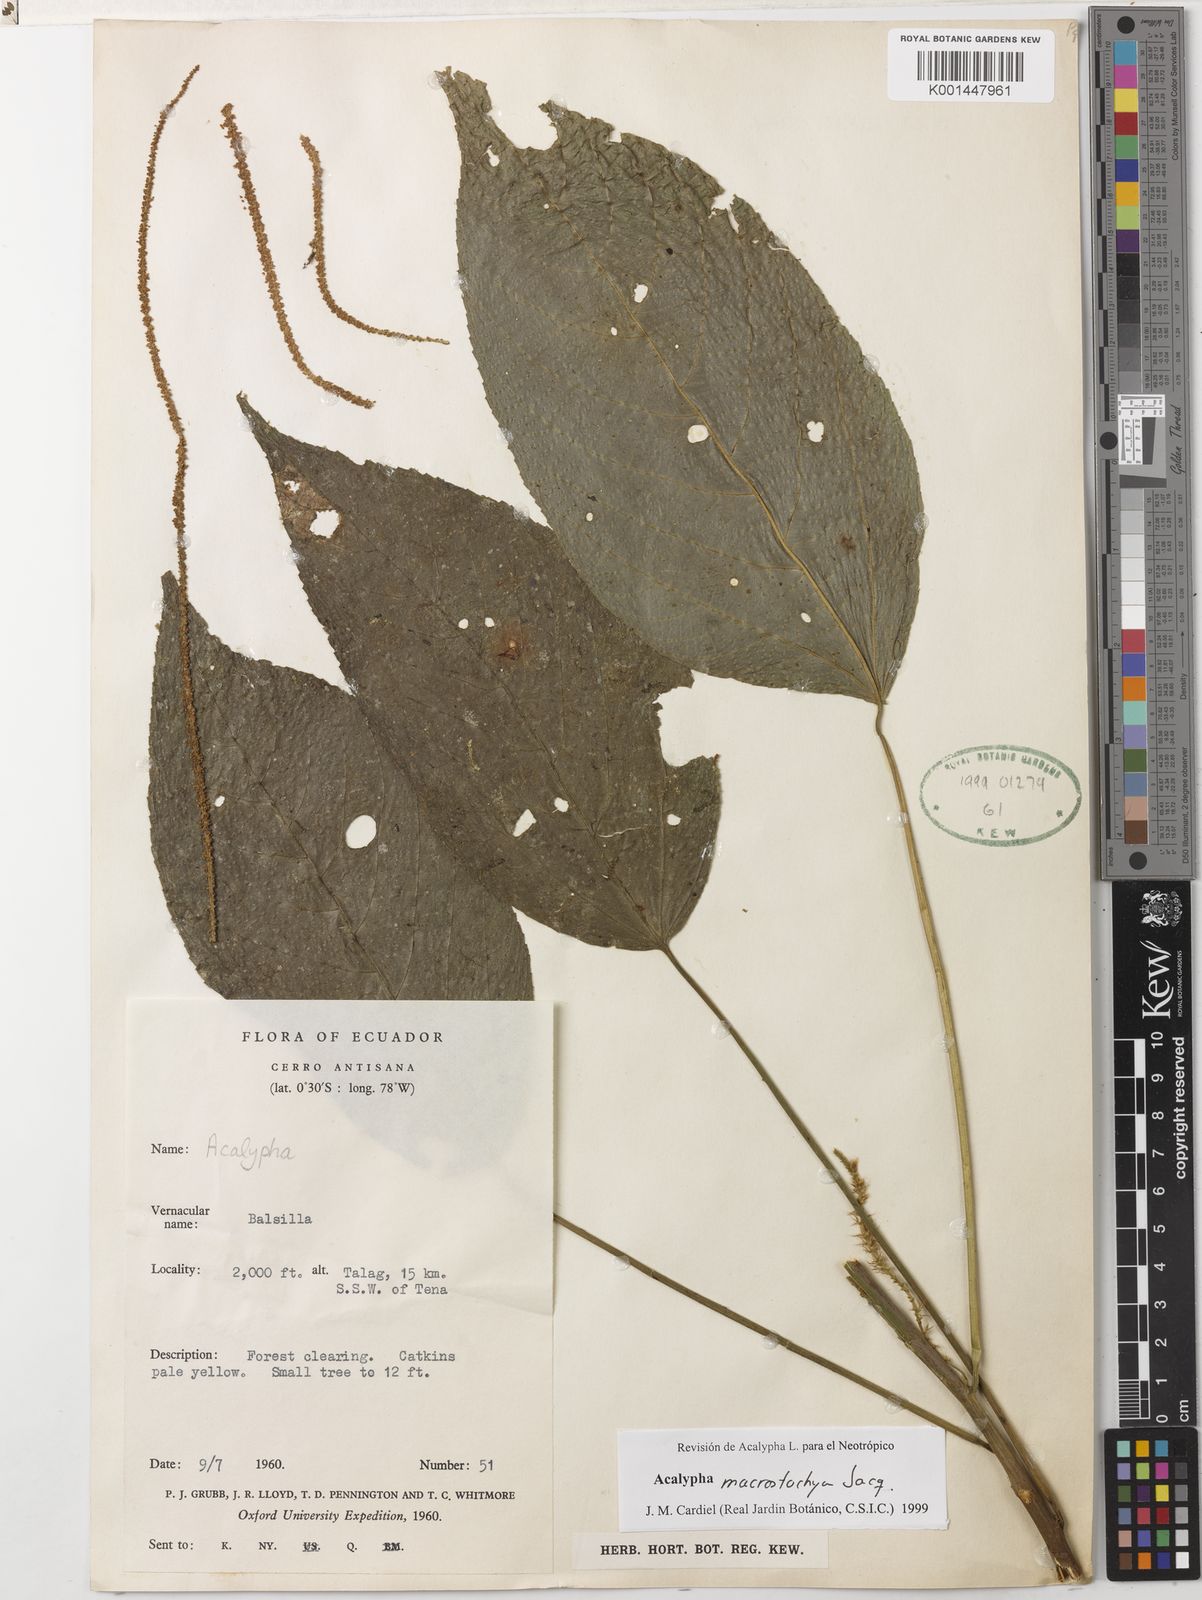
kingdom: Plantae
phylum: Tracheophyta
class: Magnoliopsida
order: Malpighiales
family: Euphorbiaceae
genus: Acalypha
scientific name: Acalypha macrostachya
